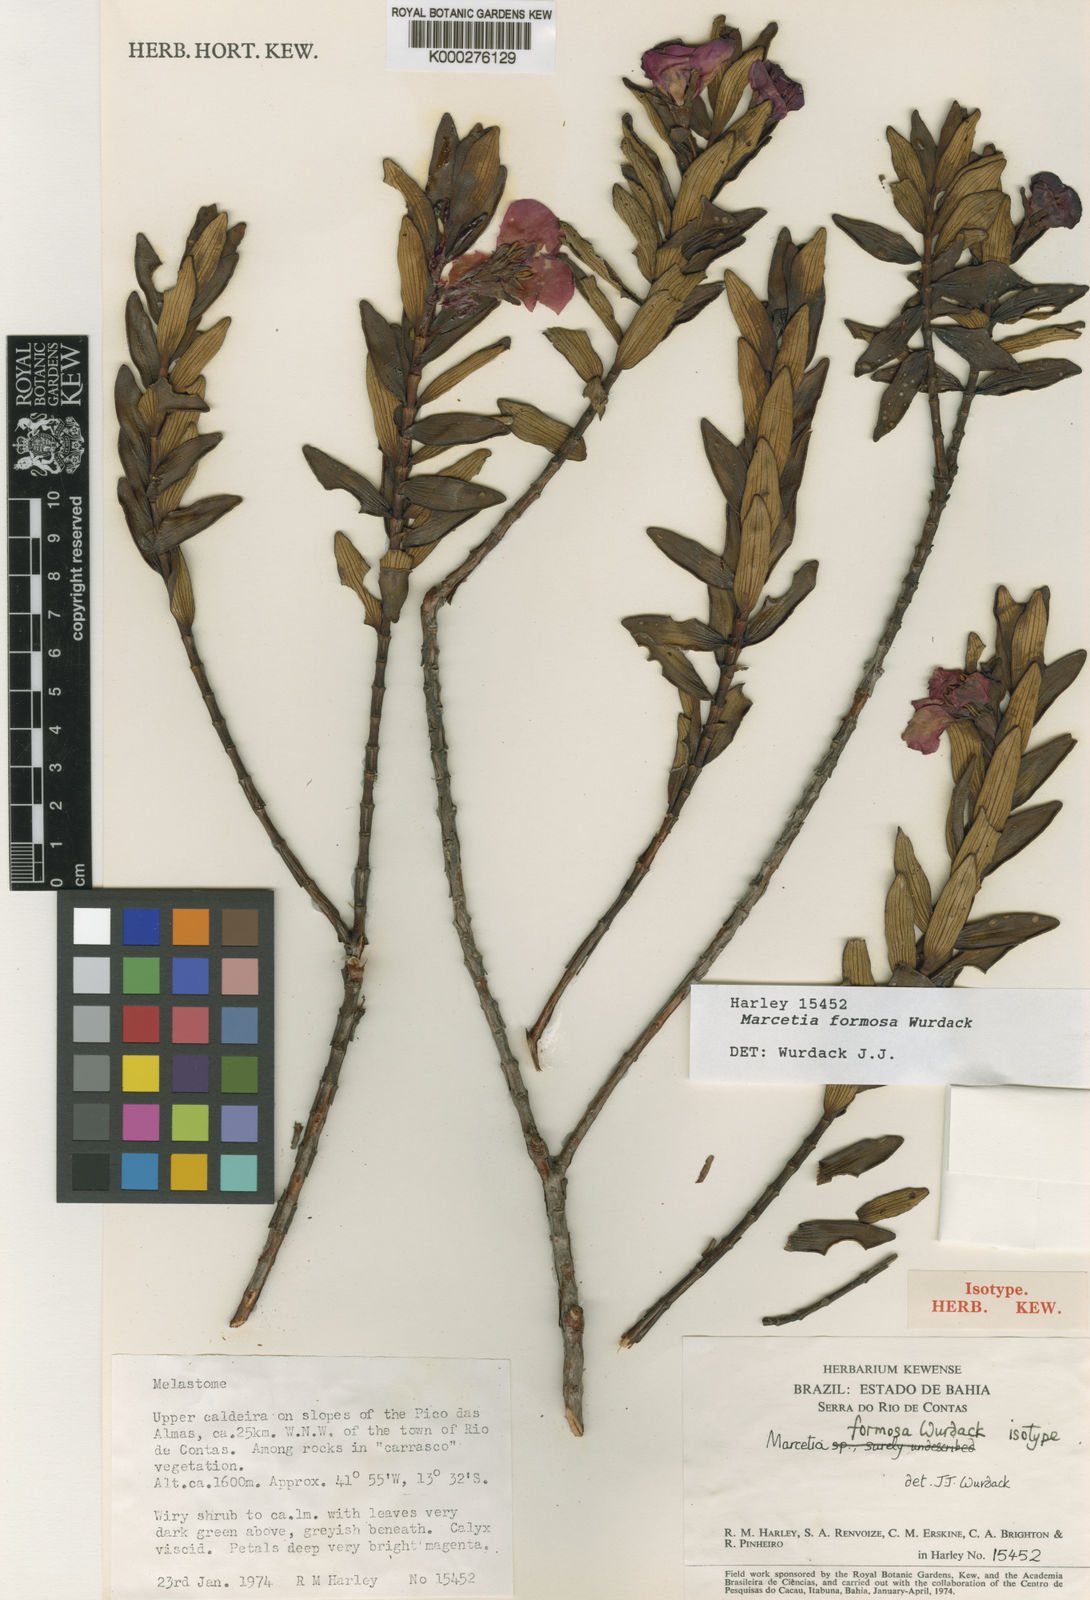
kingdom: Plantae
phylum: Tracheophyta
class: Magnoliopsida
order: Myrtales
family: Melastomataceae
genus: Marcetia
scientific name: Marcetia formosa
